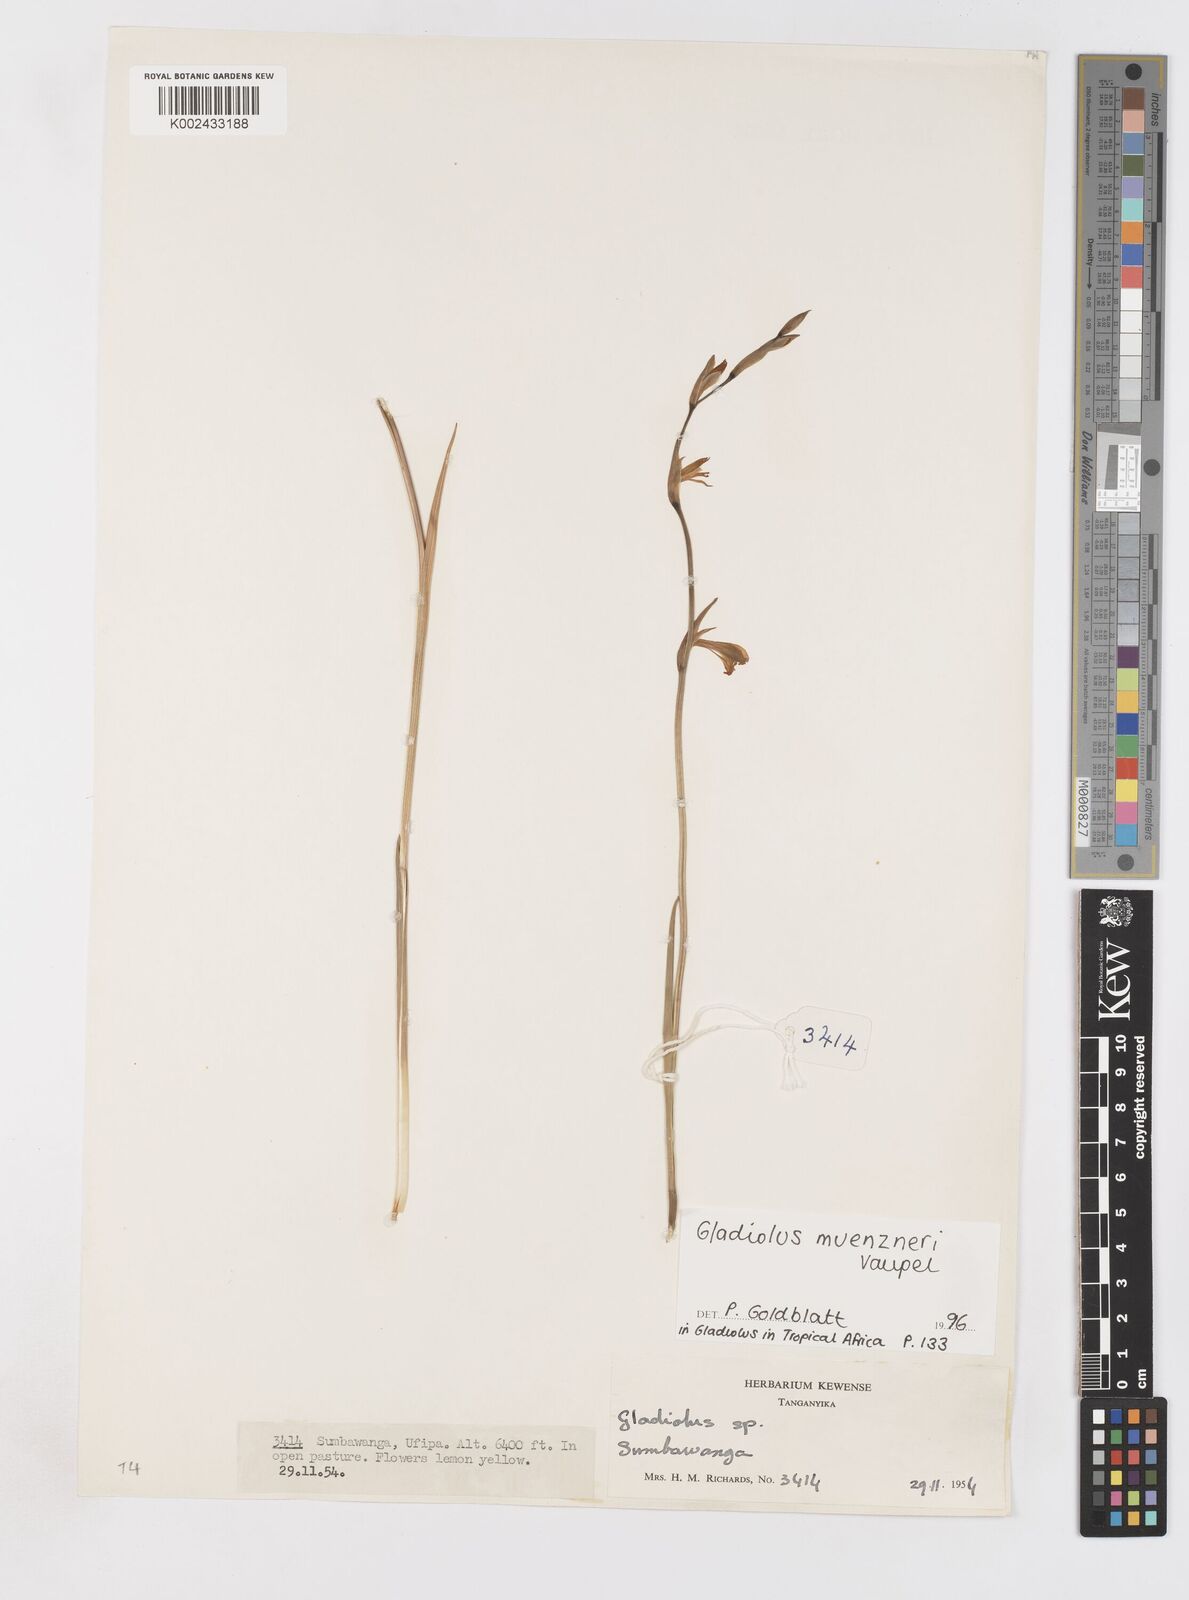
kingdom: Plantae
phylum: Tracheophyta
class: Liliopsida
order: Asparagales
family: Iridaceae
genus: Gladiolus
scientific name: Gladiolus muenzneri
